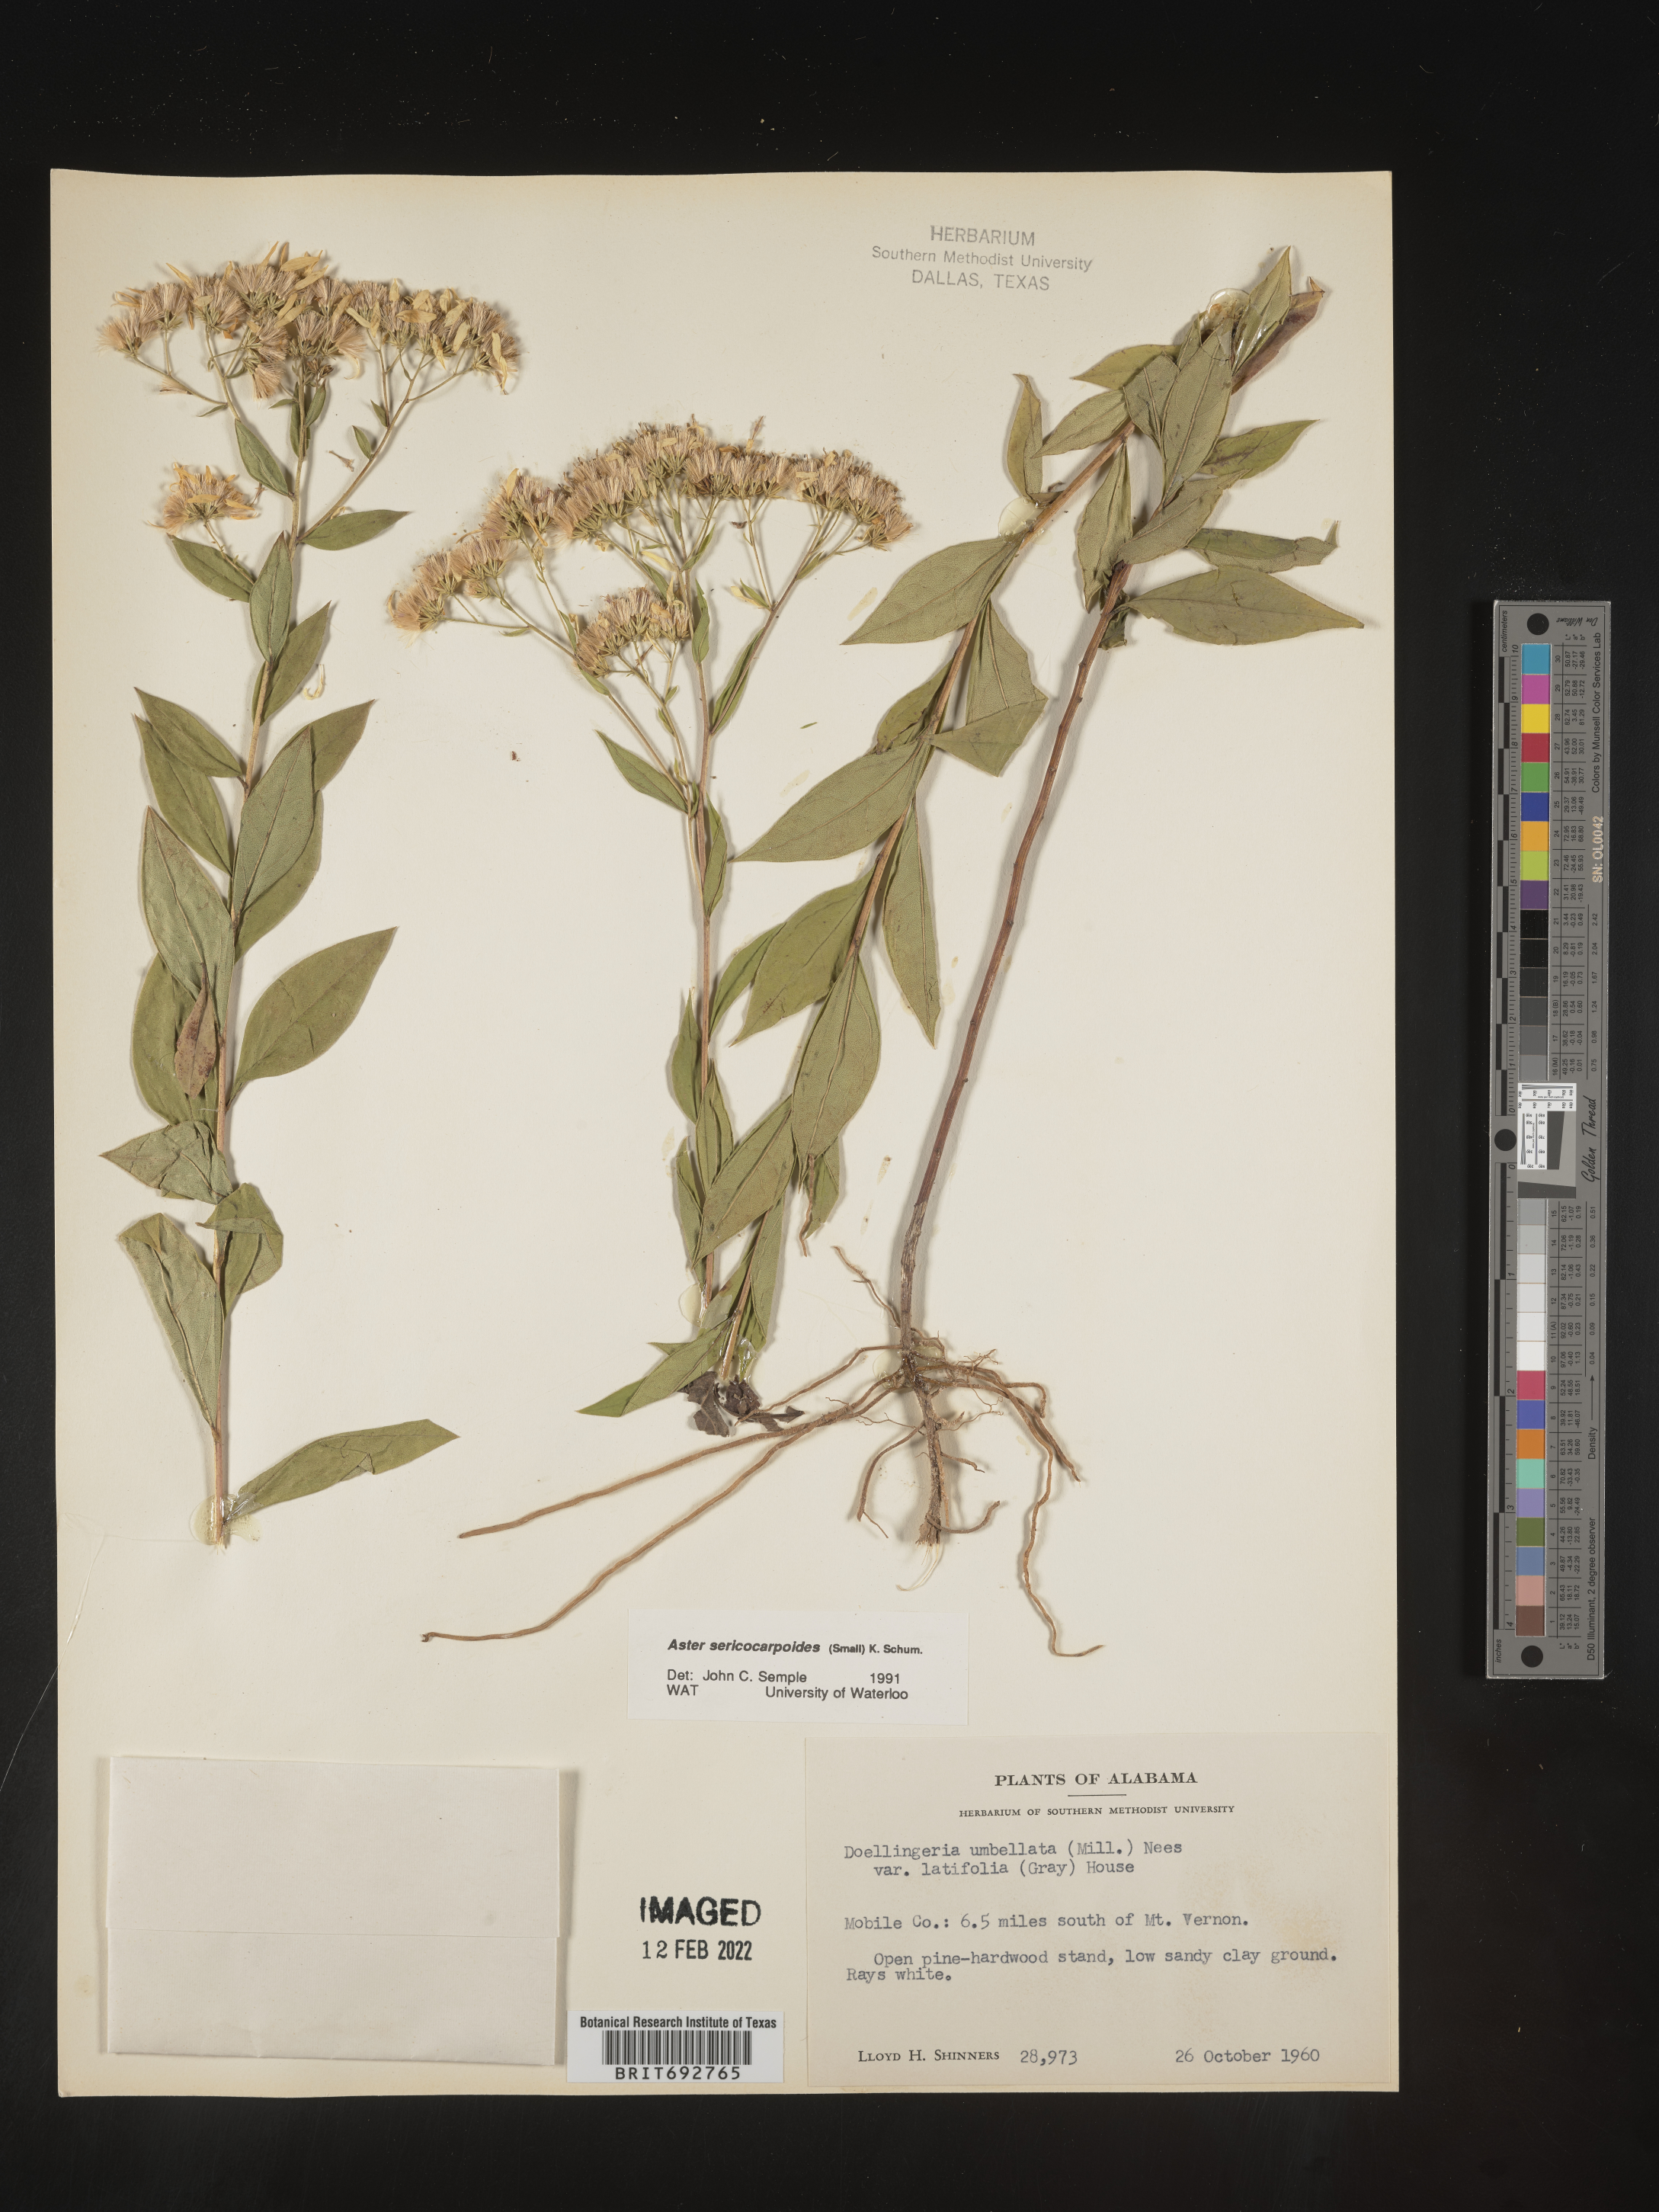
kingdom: Plantae
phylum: Tracheophyta
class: Magnoliopsida
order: Asterales
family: Asteraceae
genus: Doellingeria
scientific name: Doellingeria sericocarpoides
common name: Southern tall flat-top aster
